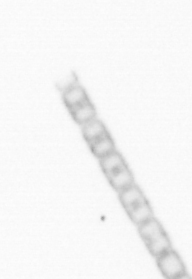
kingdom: Chromista
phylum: Ochrophyta
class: Bacillariophyceae
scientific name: Bacillariophyceae
